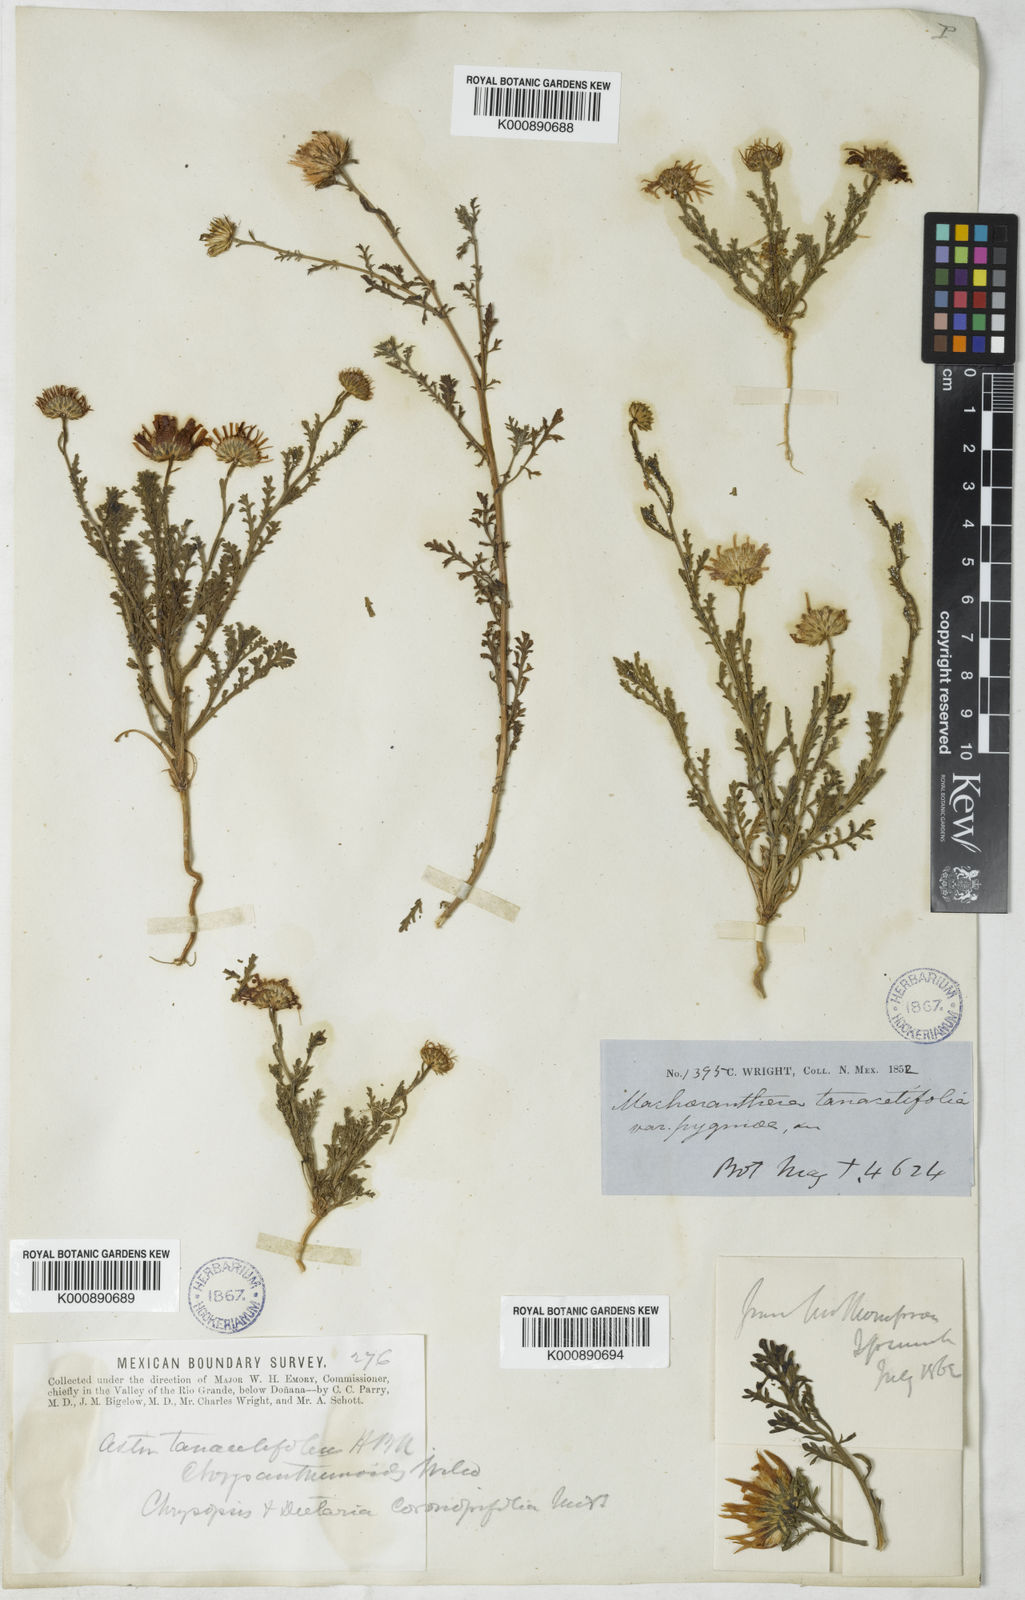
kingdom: Plantae
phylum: Tracheophyta
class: Magnoliopsida
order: Asterales
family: Asteraceae
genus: Leucosyris
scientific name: Leucosyris parviflora
